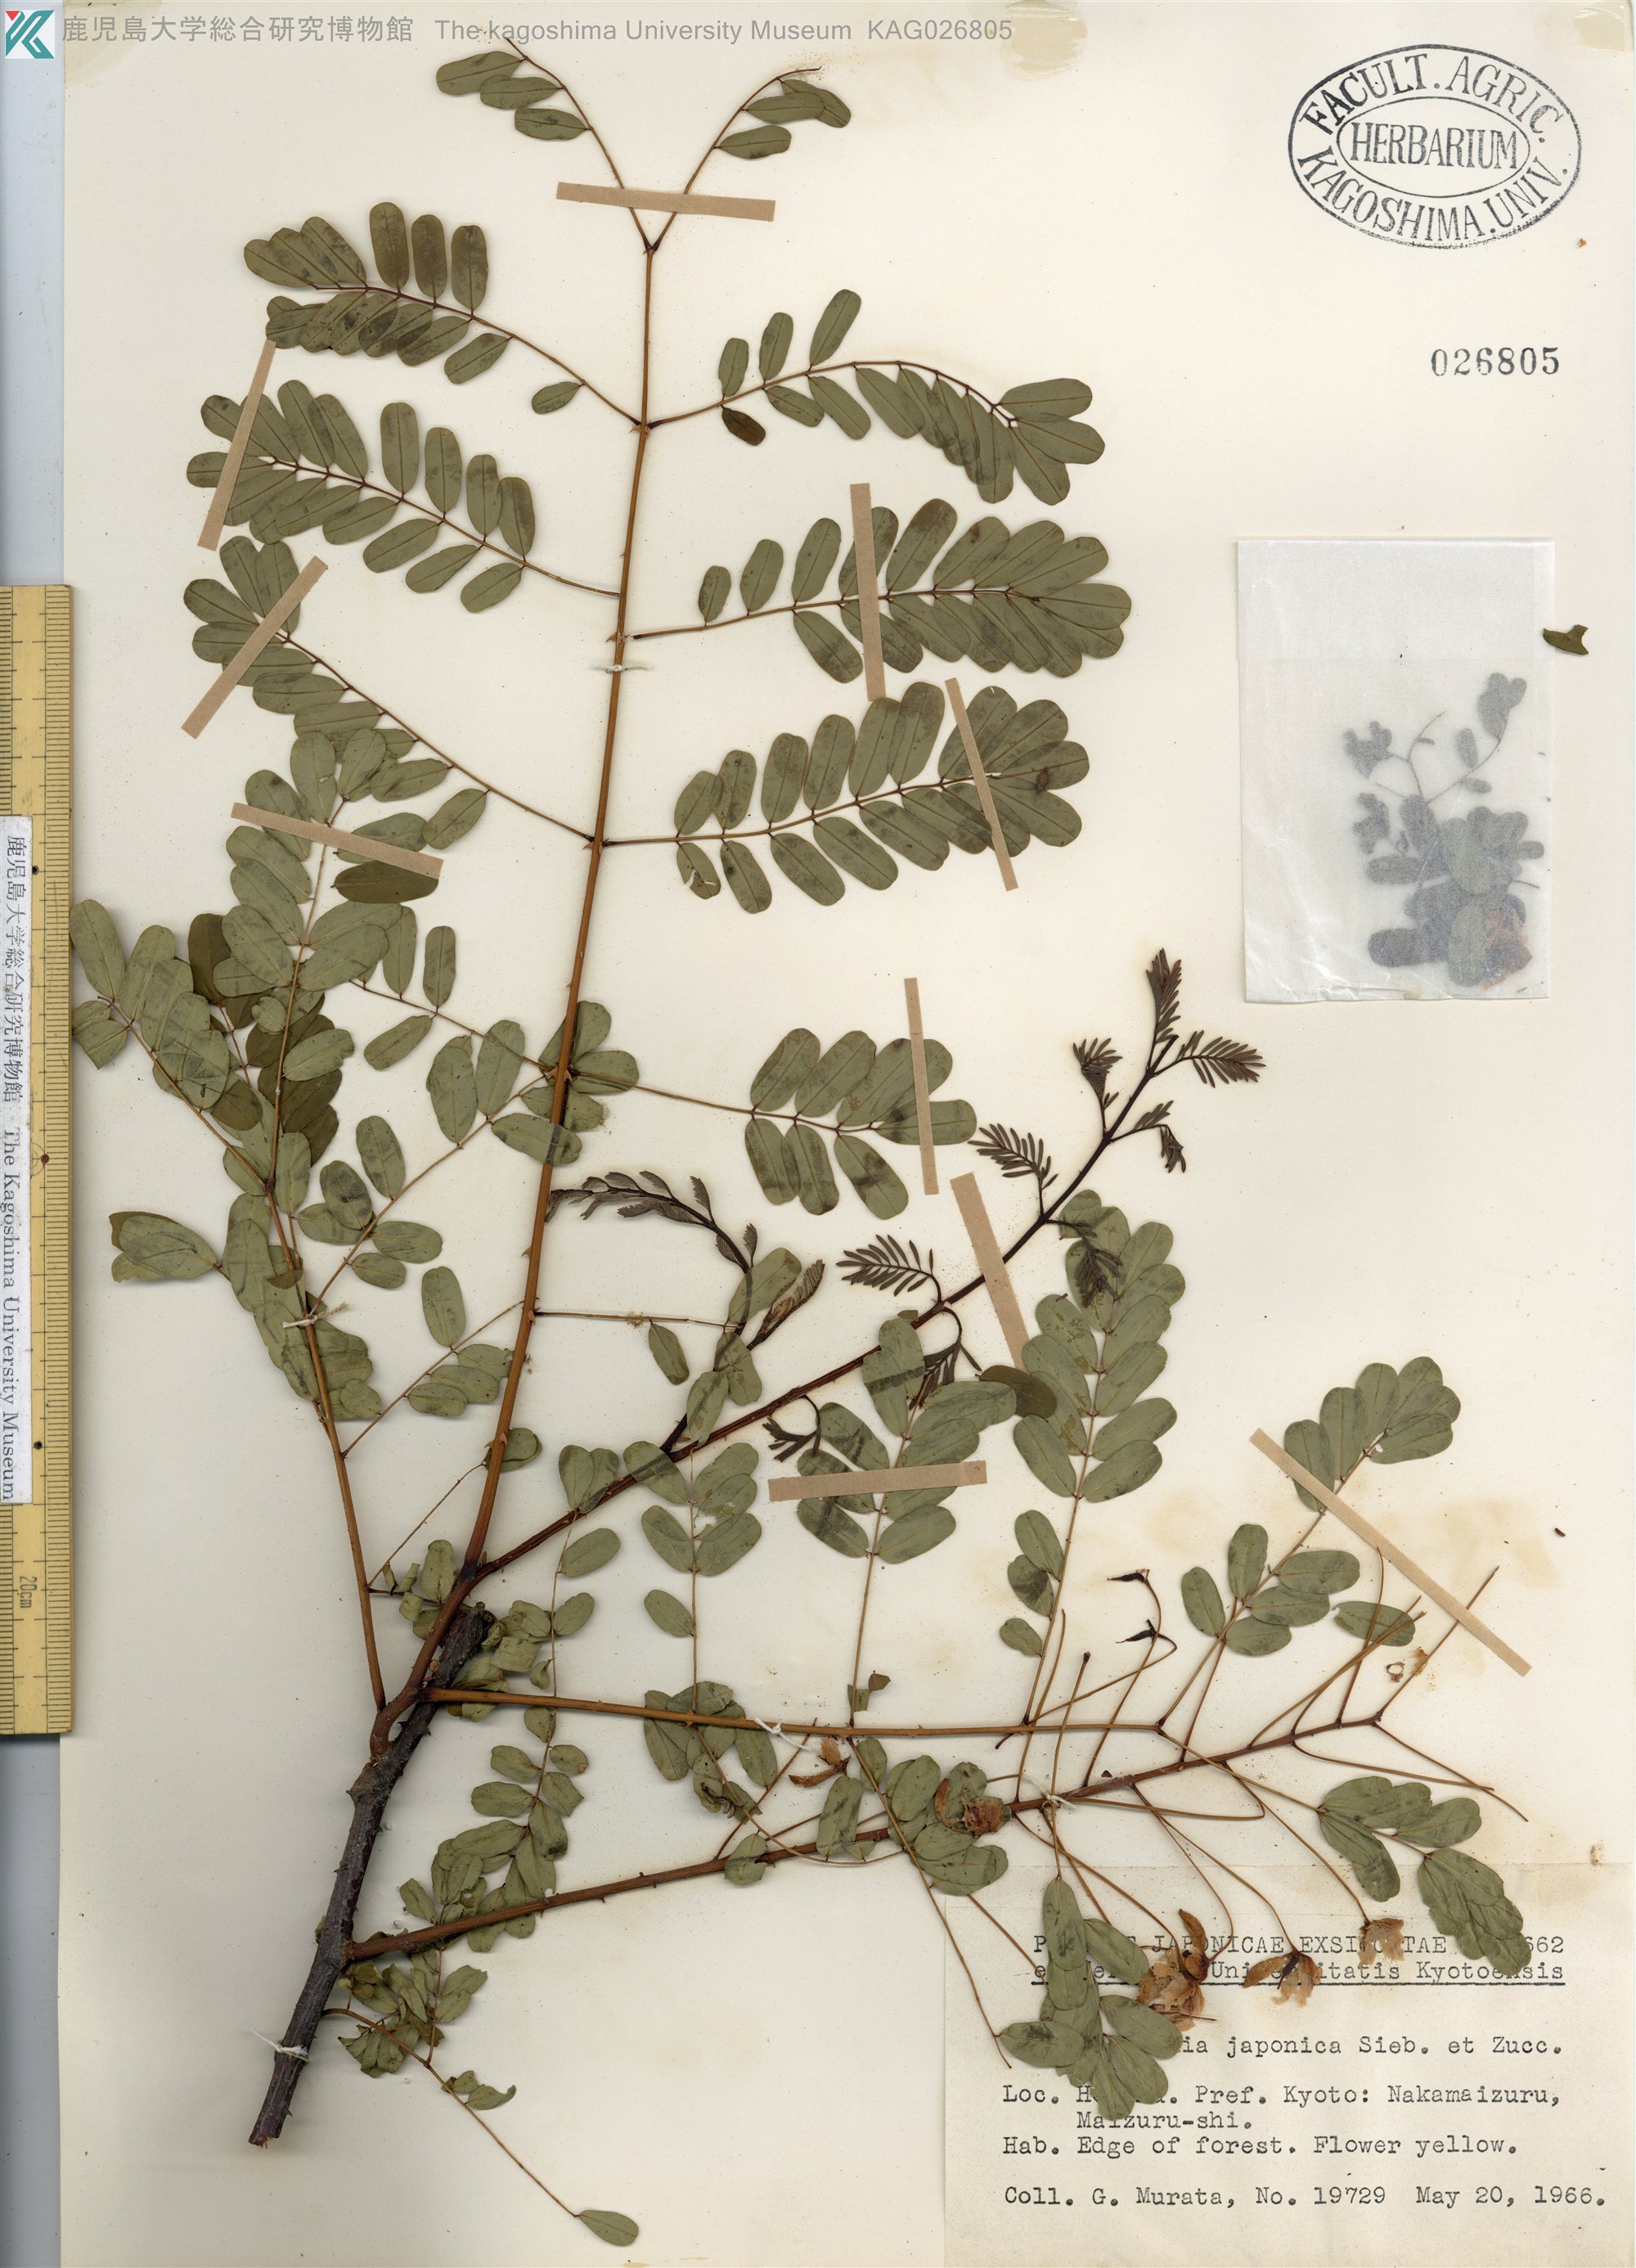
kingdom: Plantae
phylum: Tracheophyta
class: Magnoliopsida
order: Fabales
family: Fabaceae
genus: Biancaea
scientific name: Biancaea decapetala
